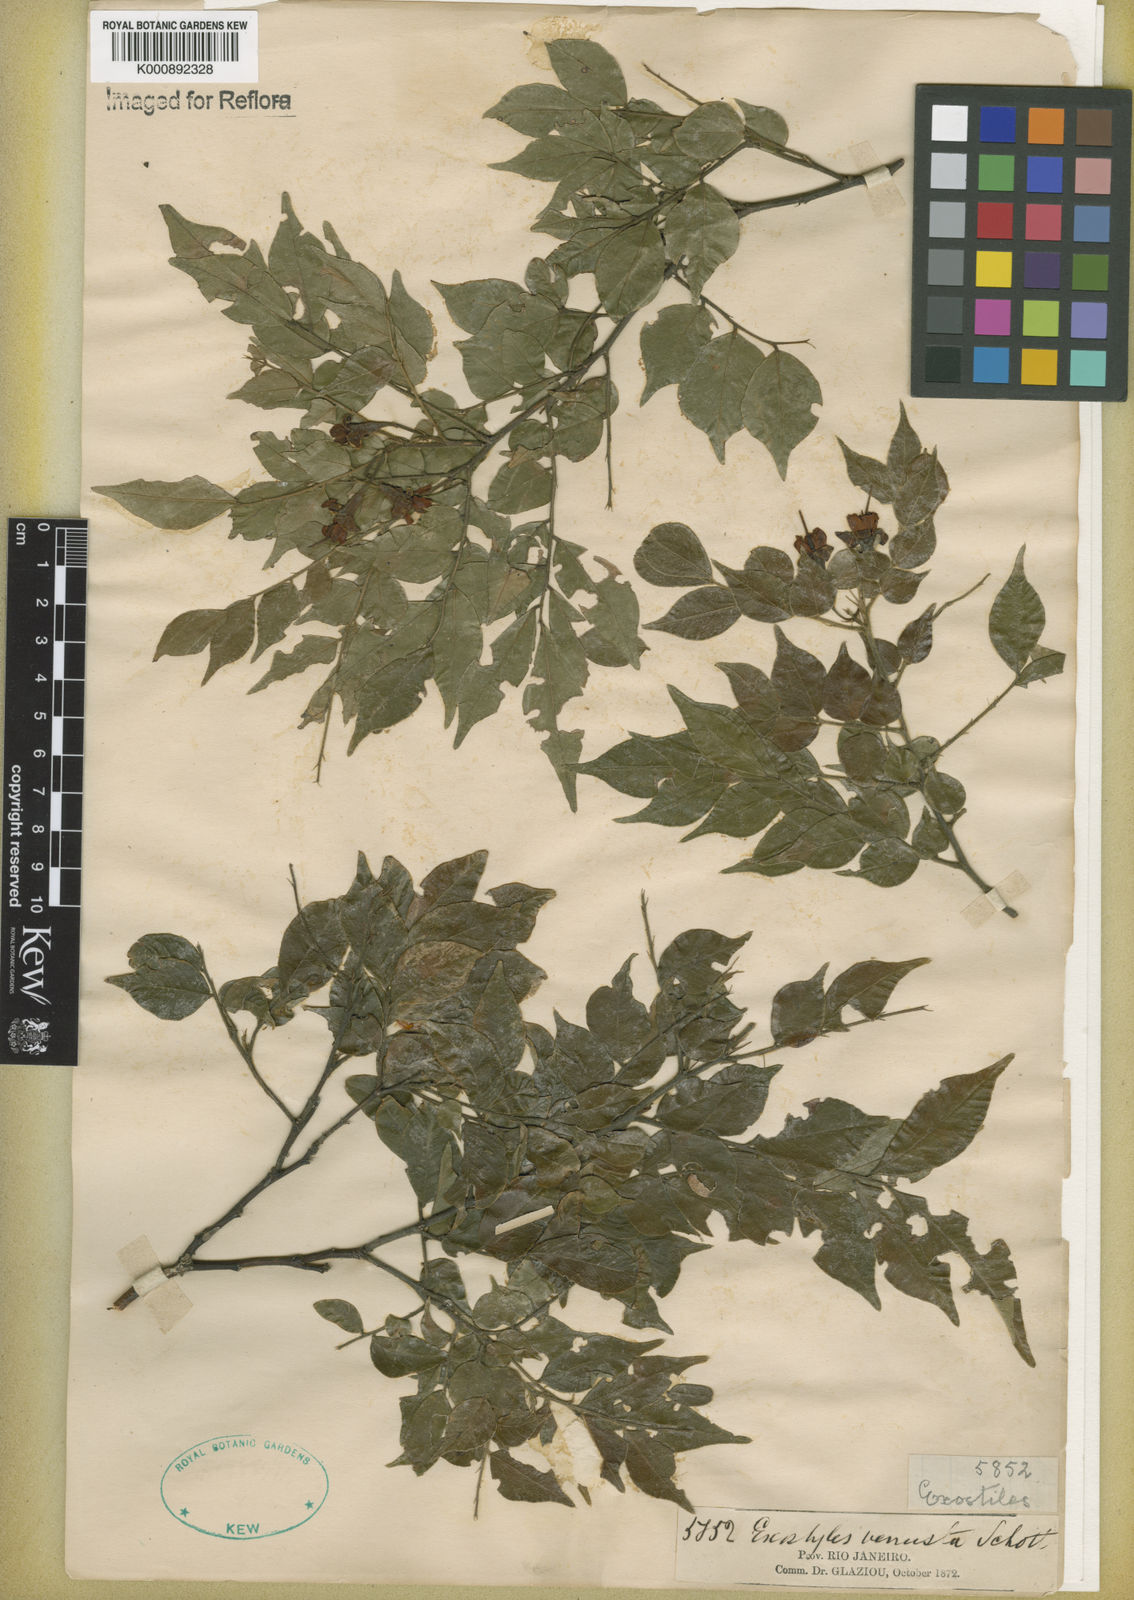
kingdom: Plantae
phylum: Tracheophyta
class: Magnoliopsida
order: Fabales
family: Fabaceae
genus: Exostyles
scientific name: Exostyles venusta
